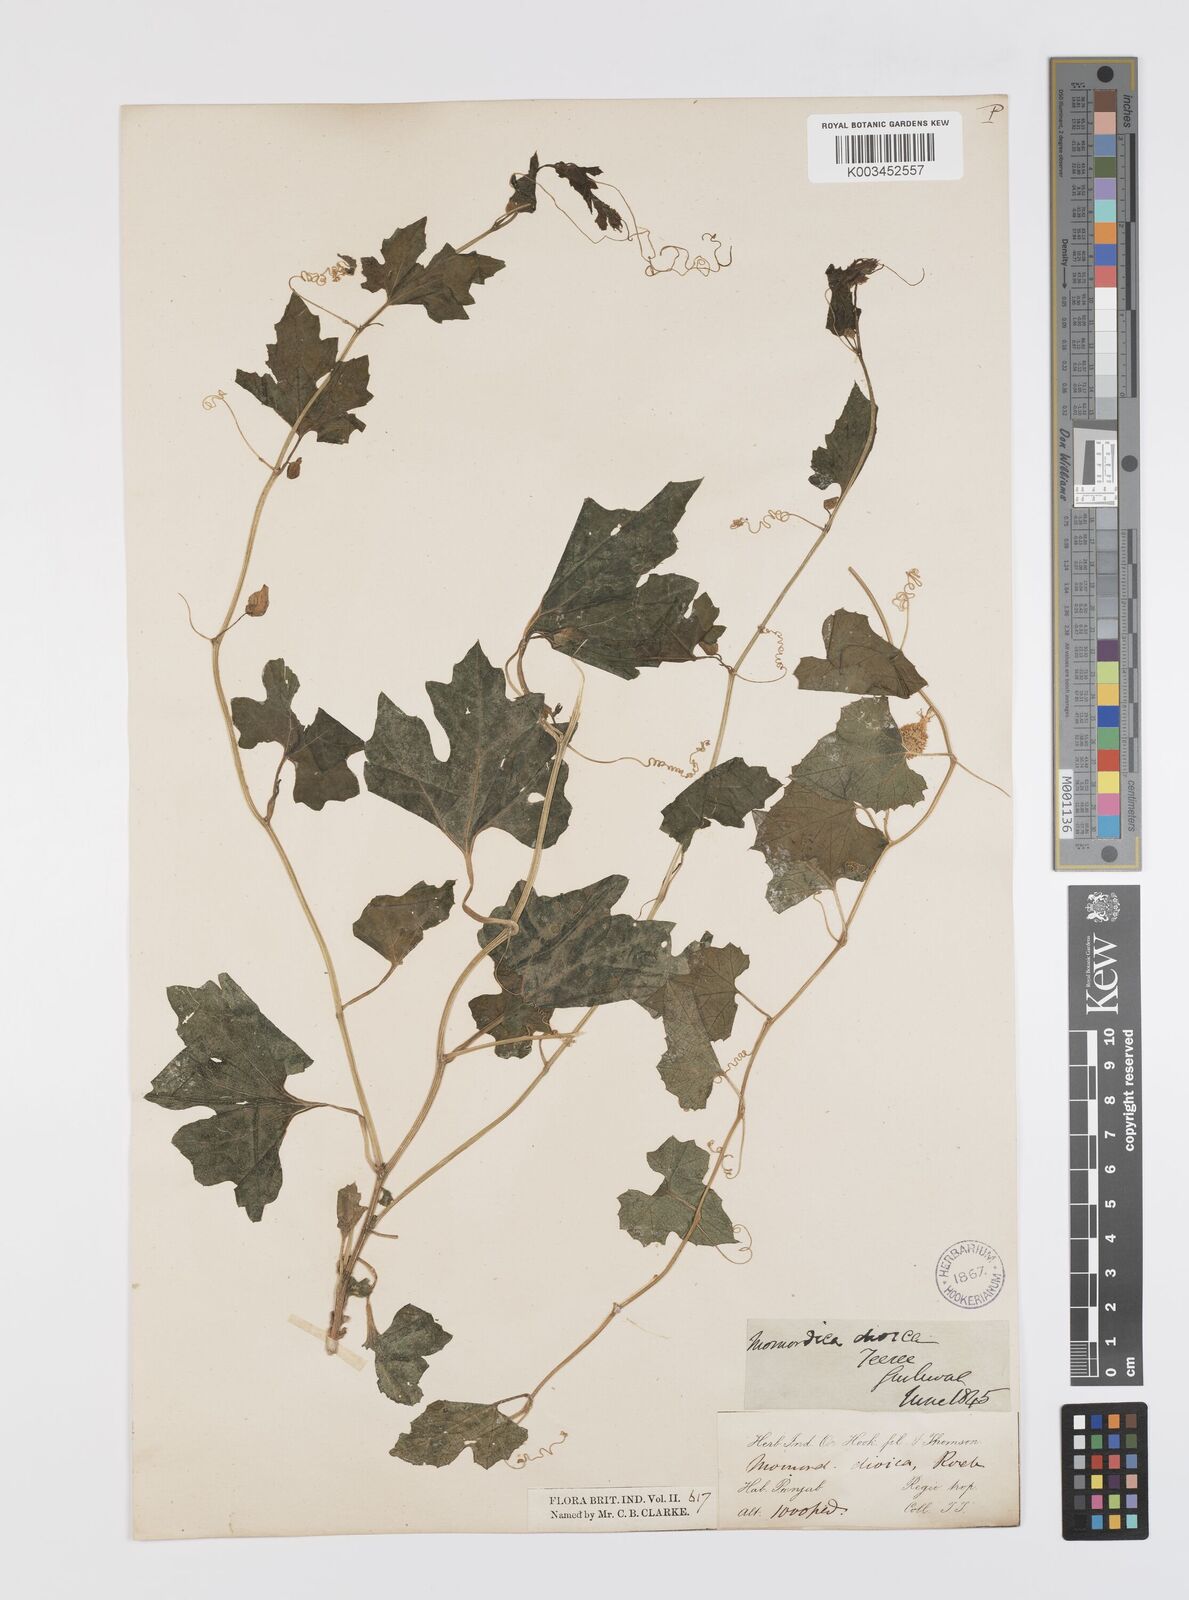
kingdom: Plantae
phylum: Tracheophyta
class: Magnoliopsida
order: Cucurbitales
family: Cucurbitaceae
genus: Momordica
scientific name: Momordica dioica
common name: Spine gourd
